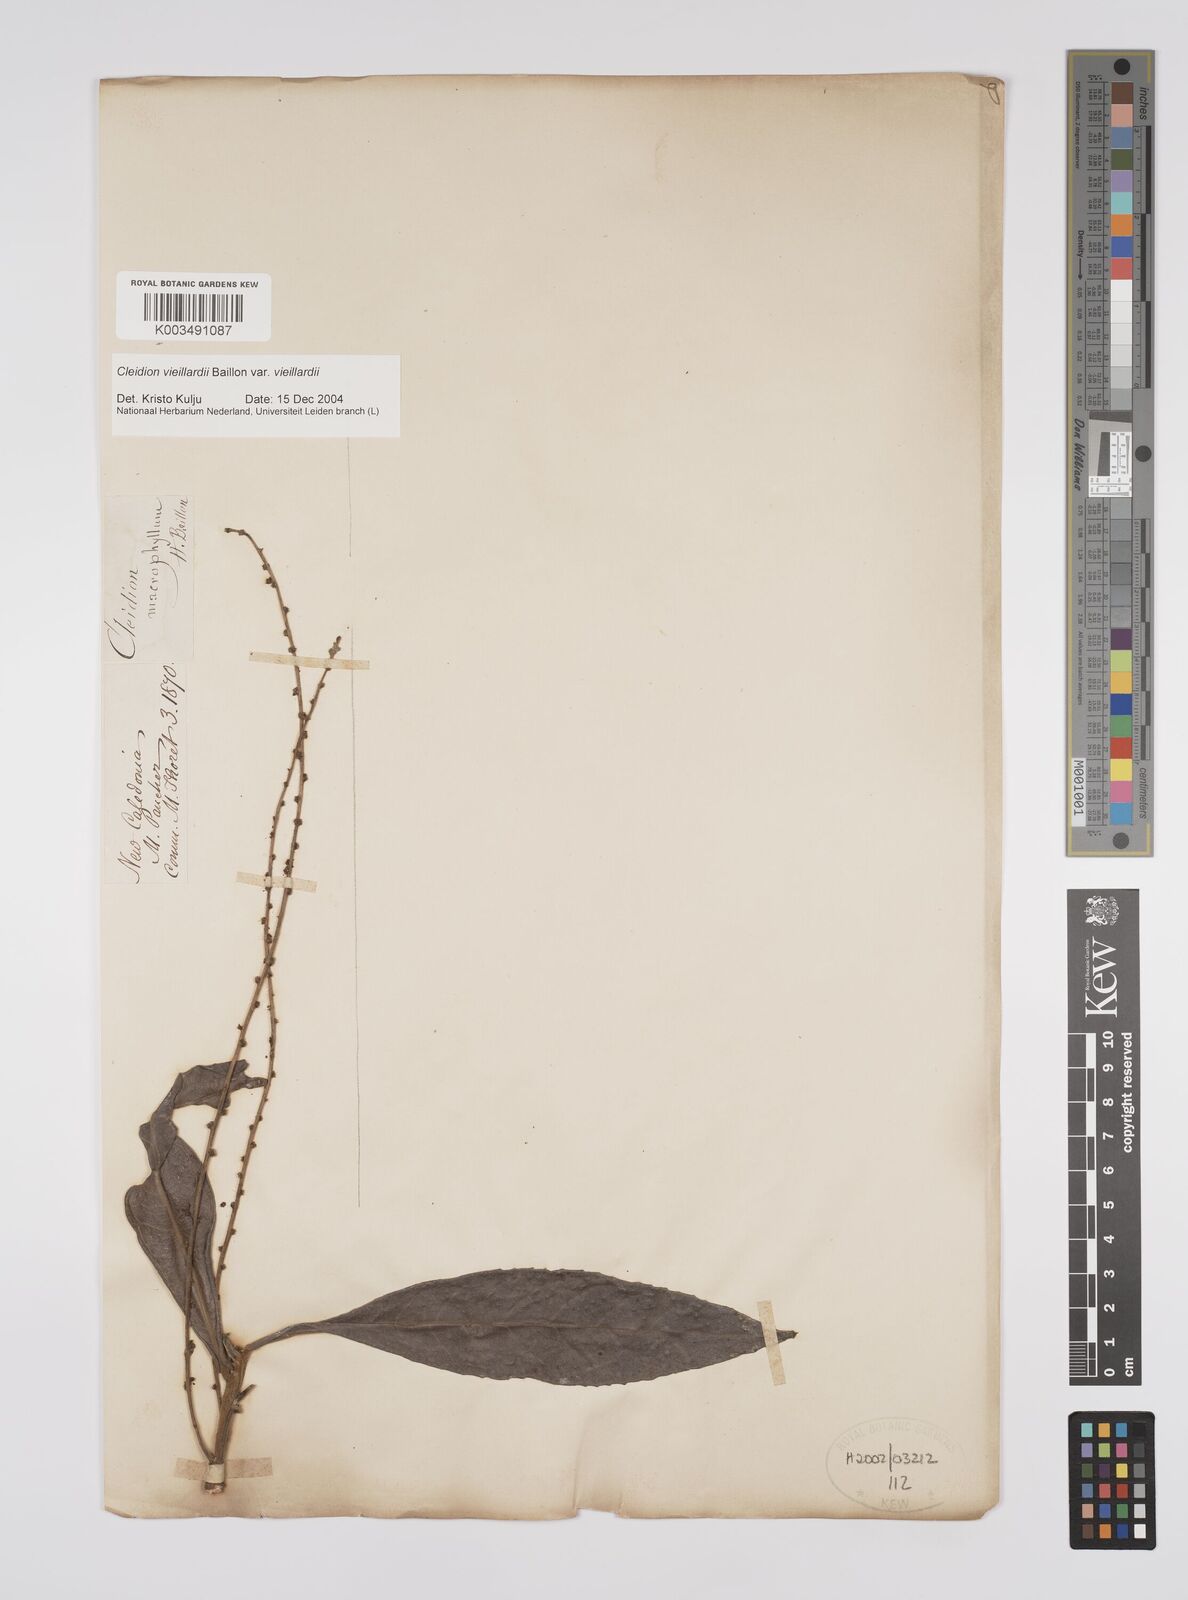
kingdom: Plantae
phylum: Tracheophyta
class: Magnoliopsida
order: Malpighiales
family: Euphorbiaceae
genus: Cleidion
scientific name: Cleidion vieillardii
